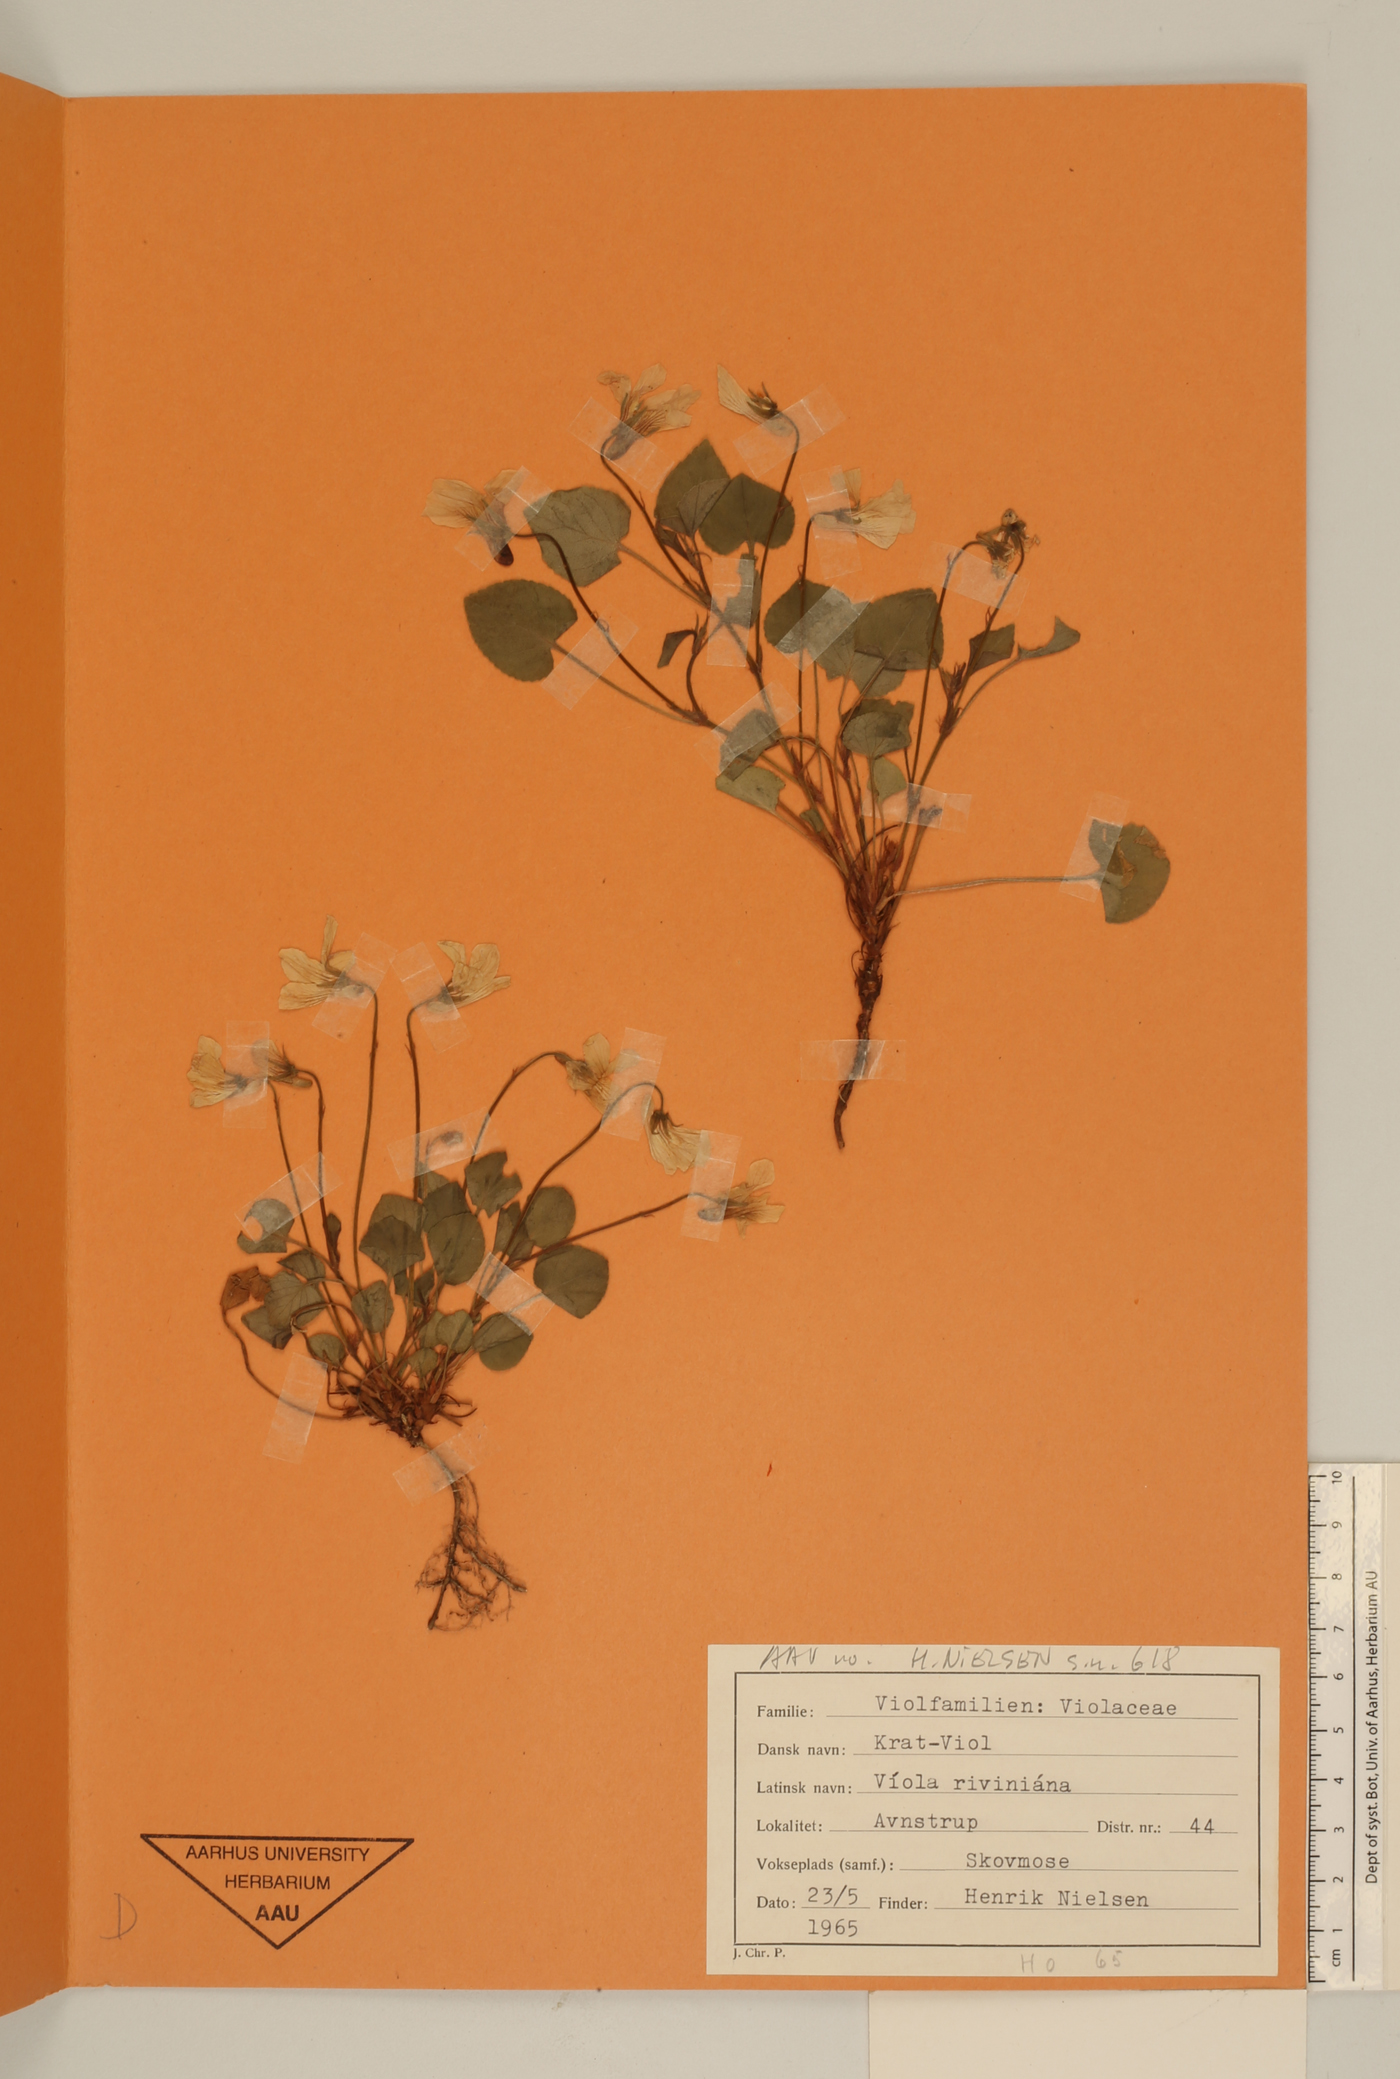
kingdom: Plantae
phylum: Tracheophyta
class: Magnoliopsida
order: Malpighiales
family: Violaceae
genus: Viola
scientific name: Viola riviniana
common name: Common dog-violet
